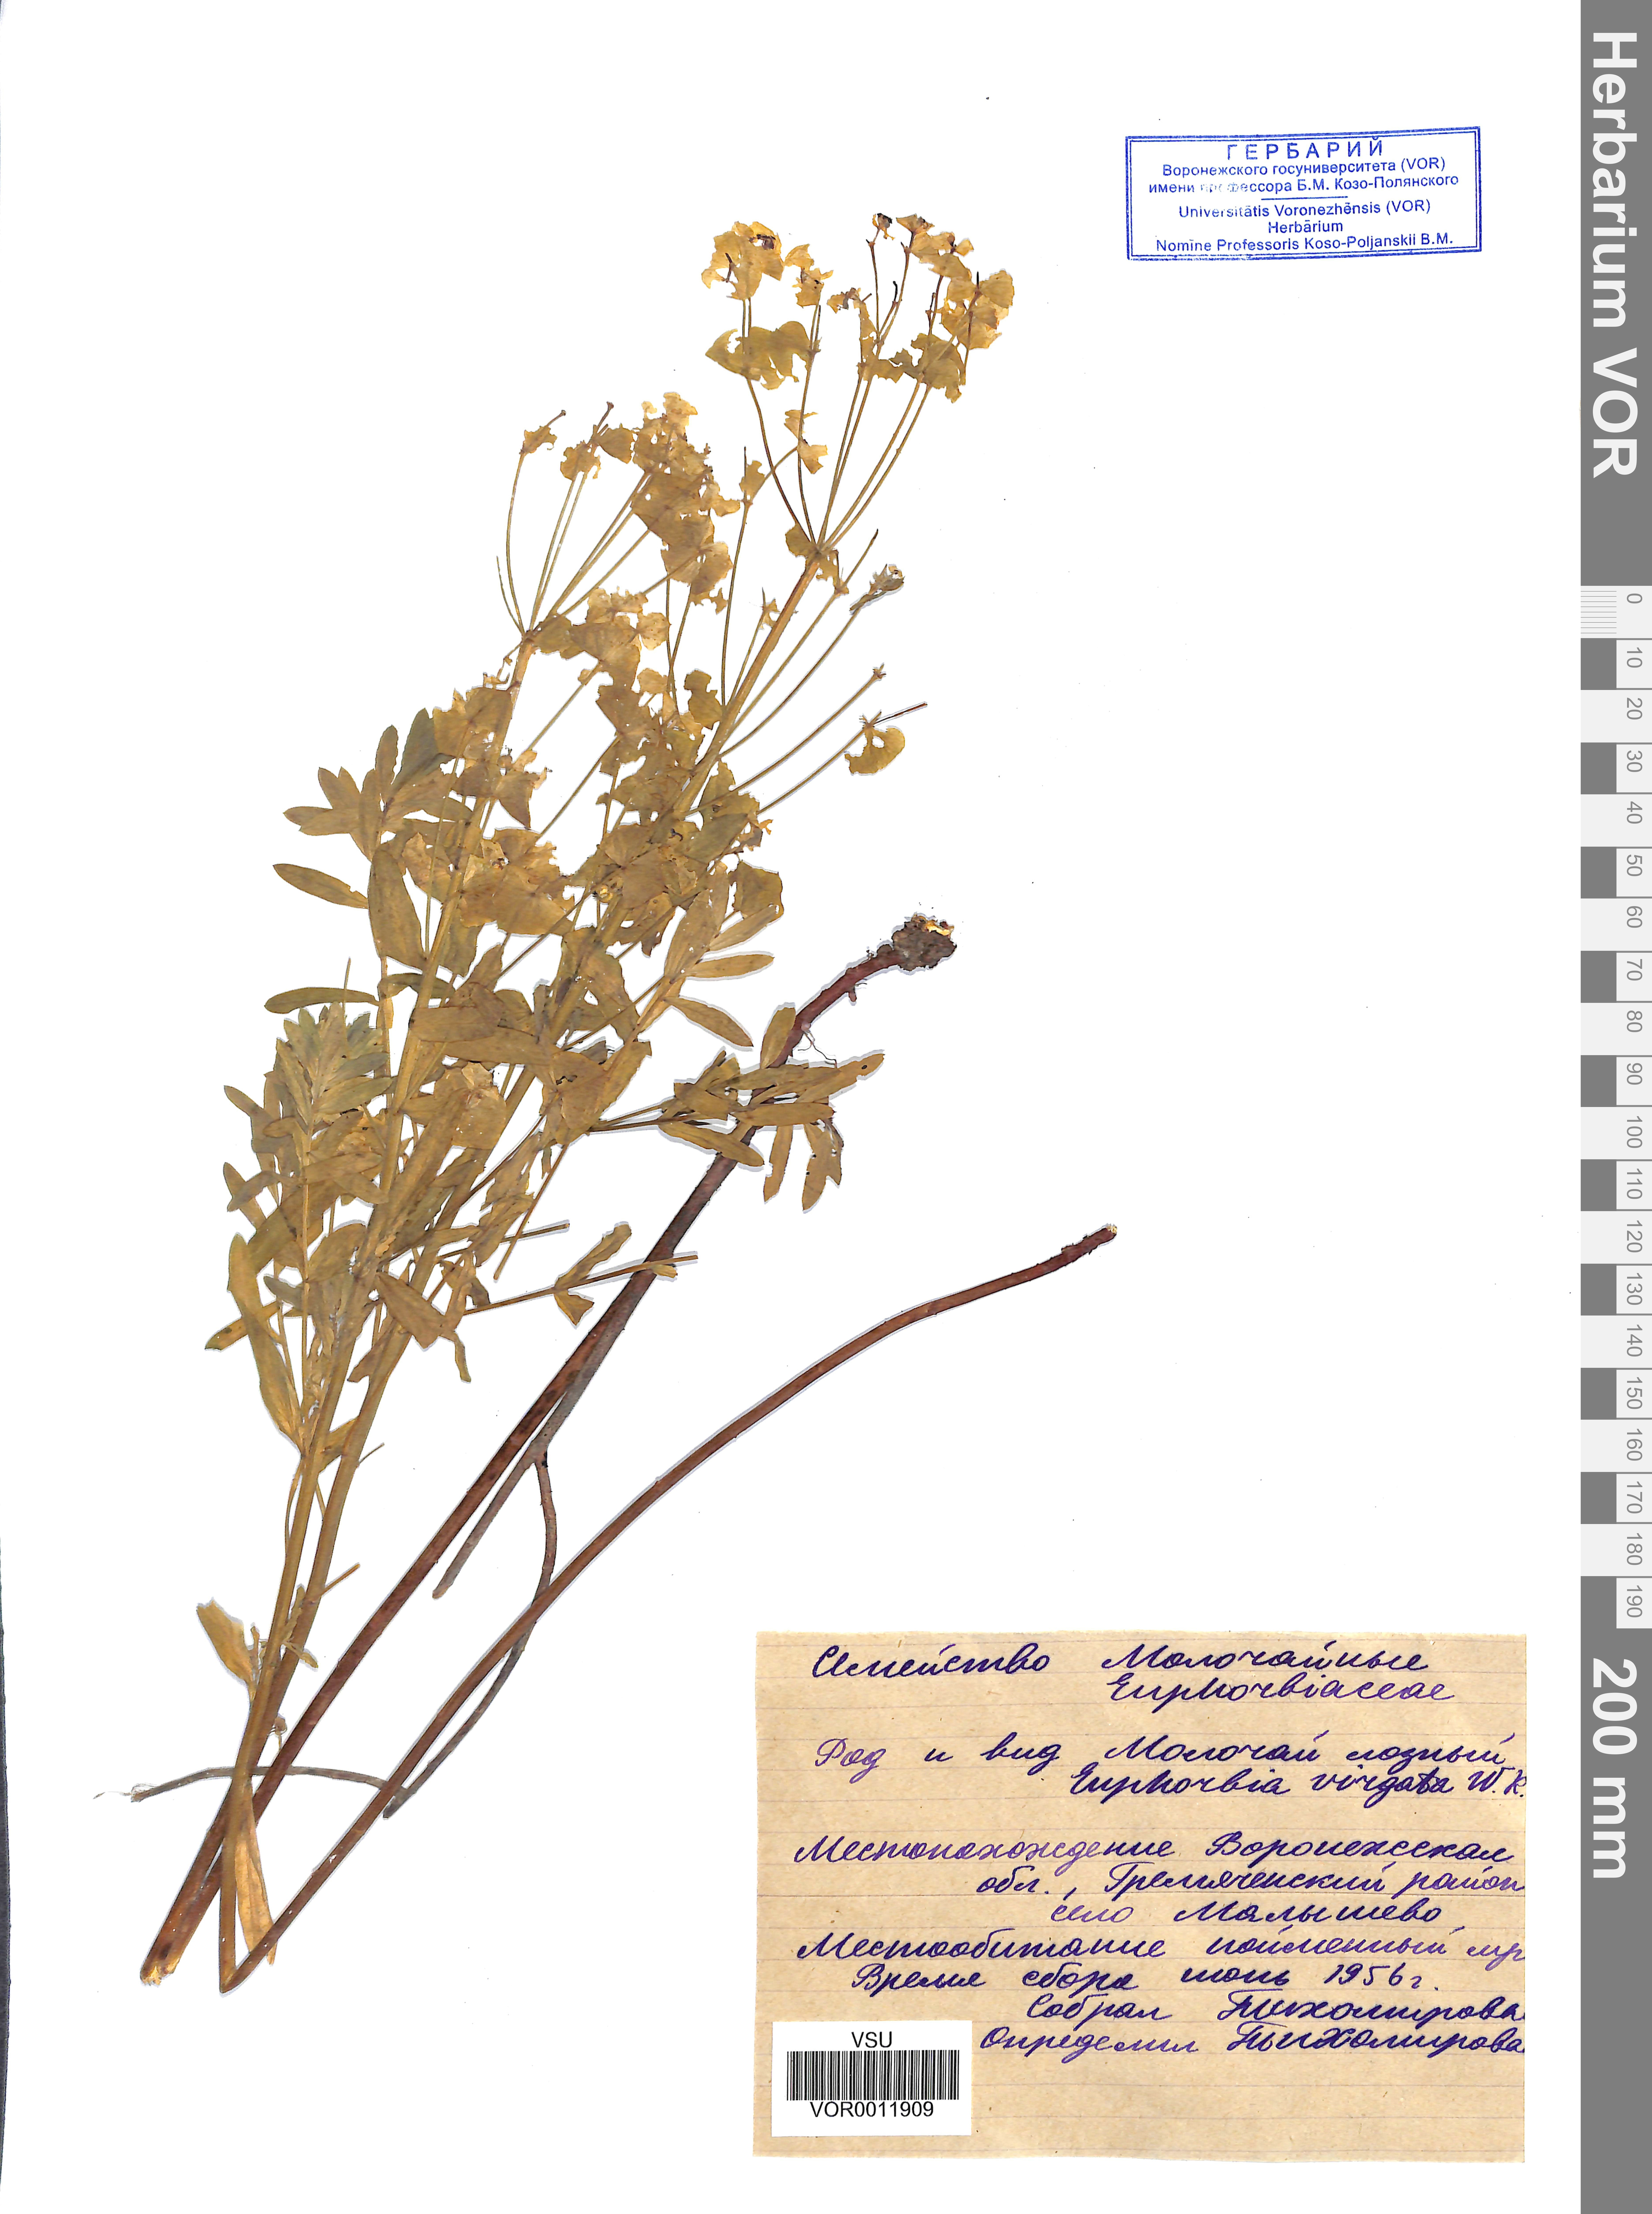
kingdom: Plantae
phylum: Tracheophyta
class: Magnoliopsida
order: Malpighiales
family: Euphorbiaceae
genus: Euphorbia
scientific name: Euphorbia virgata
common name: Leafy spurge
